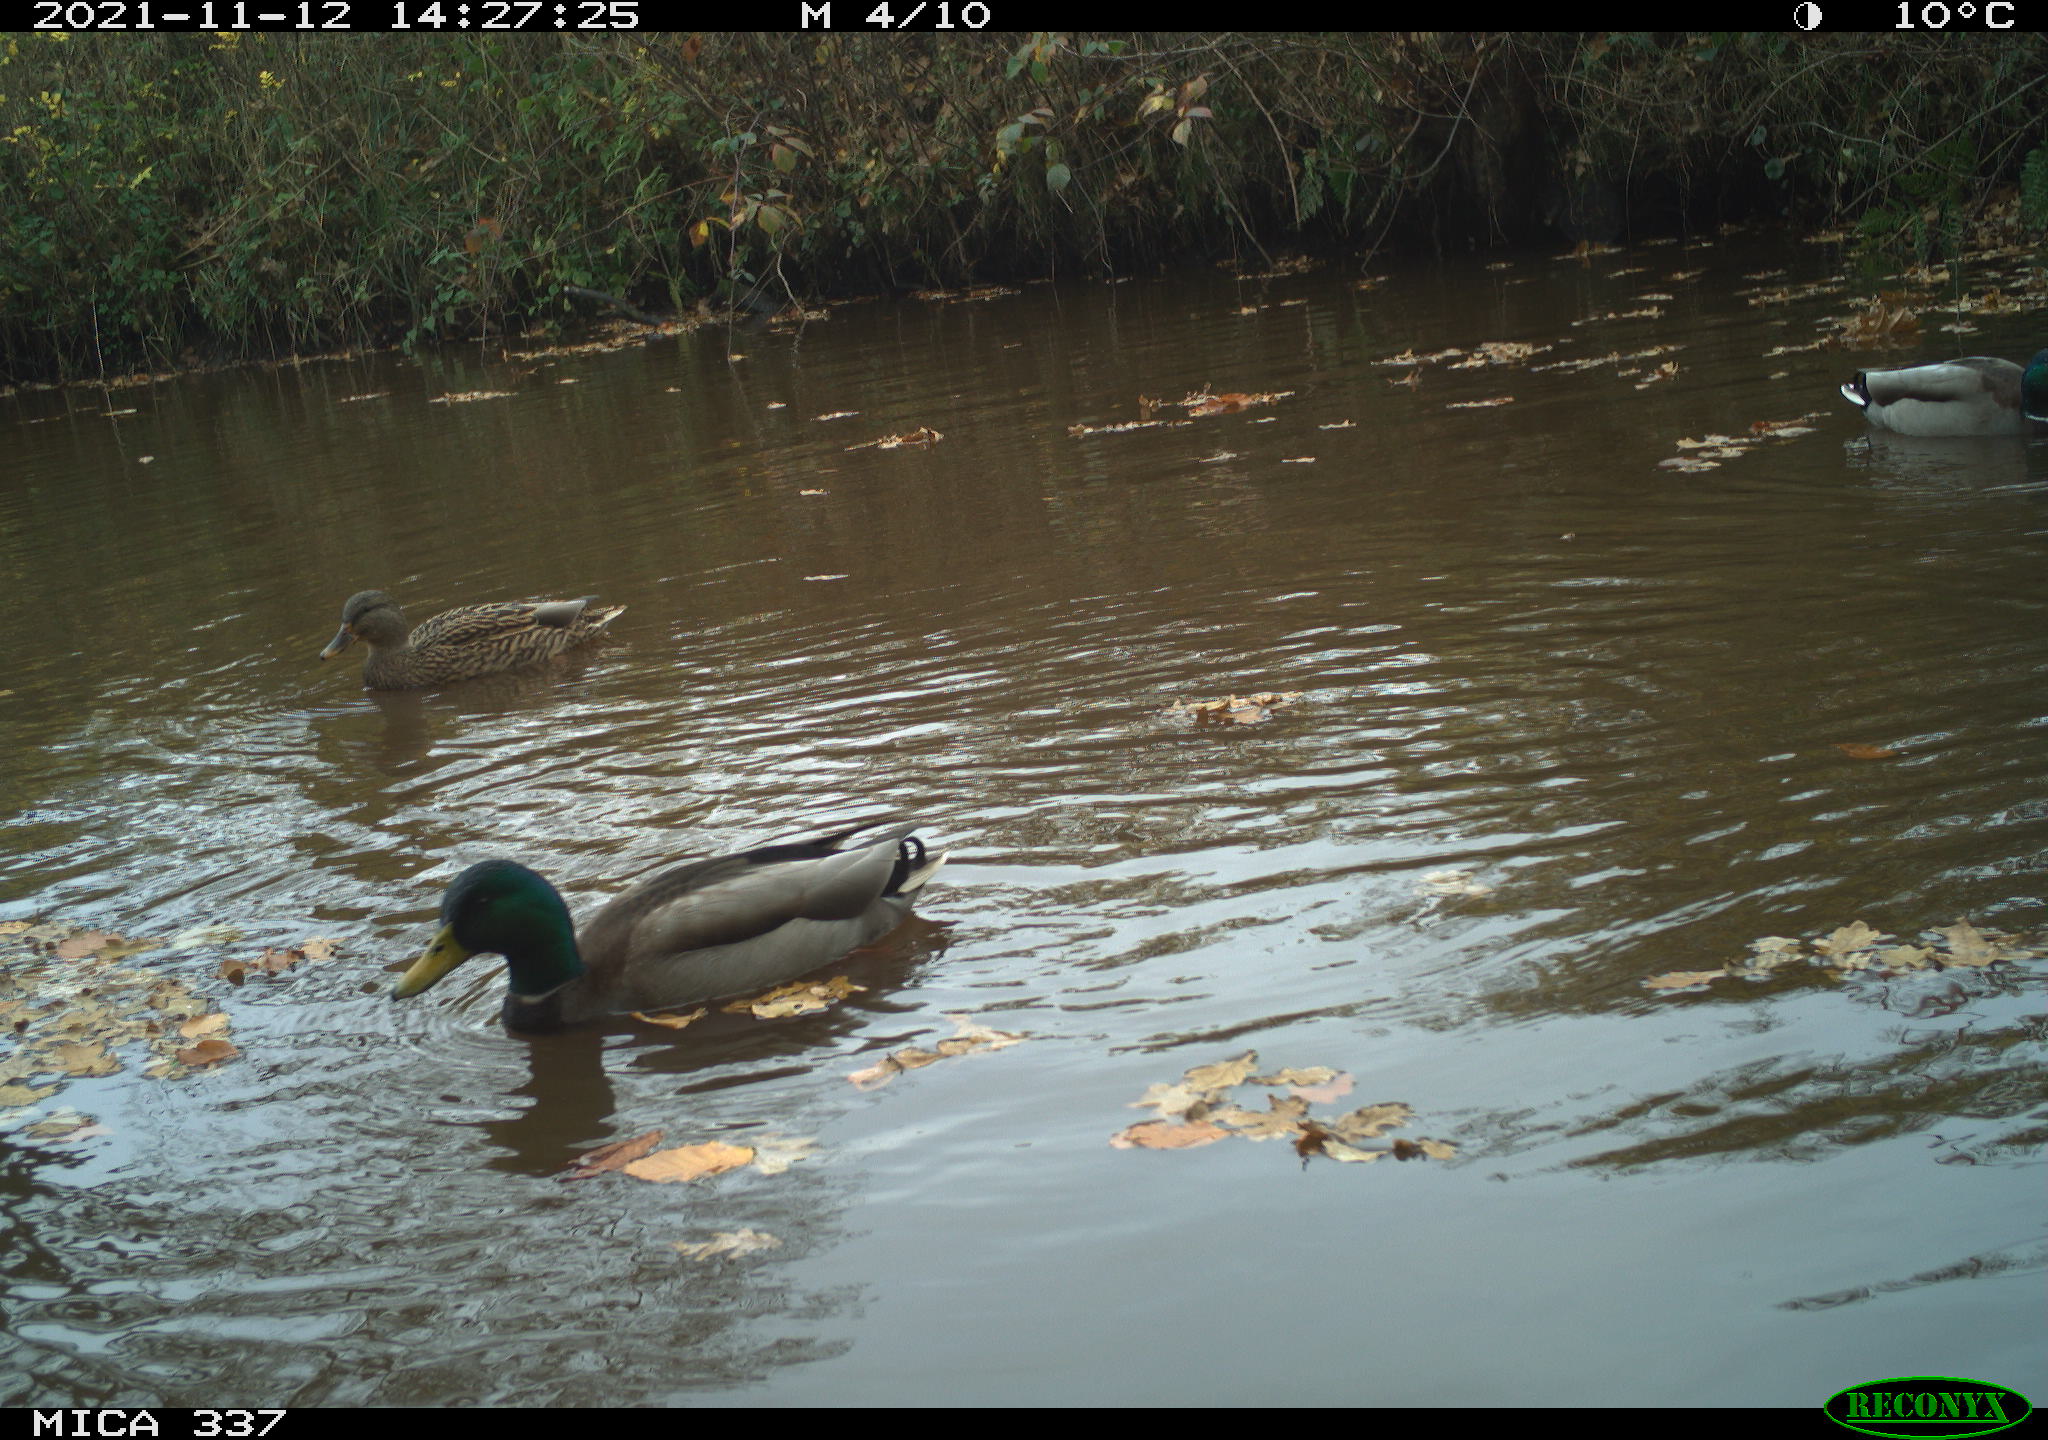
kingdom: Animalia
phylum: Chordata
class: Aves
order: Anseriformes
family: Anatidae
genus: Anas
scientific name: Anas platyrhynchos
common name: Mallard
